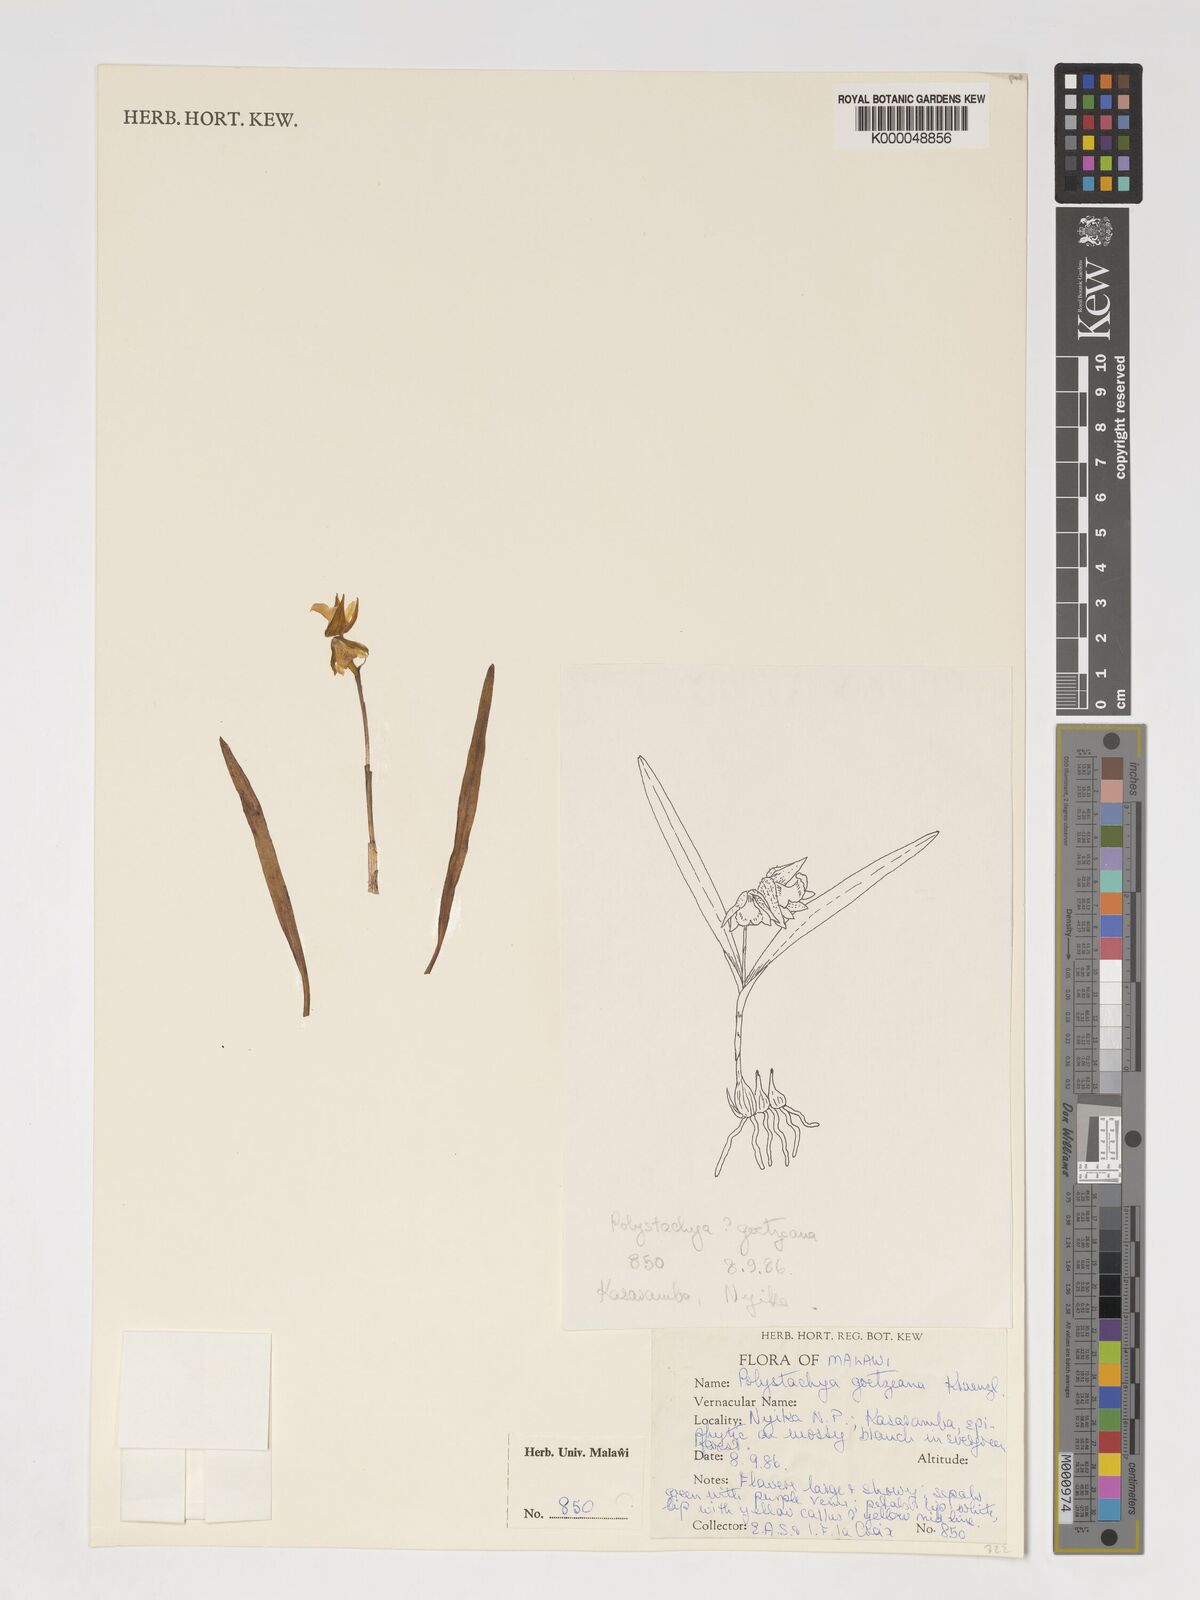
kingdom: Plantae
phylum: Tracheophyta
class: Liliopsida
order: Asparagales
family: Orchidaceae
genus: Polystachya
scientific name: Polystachya goetzeana
